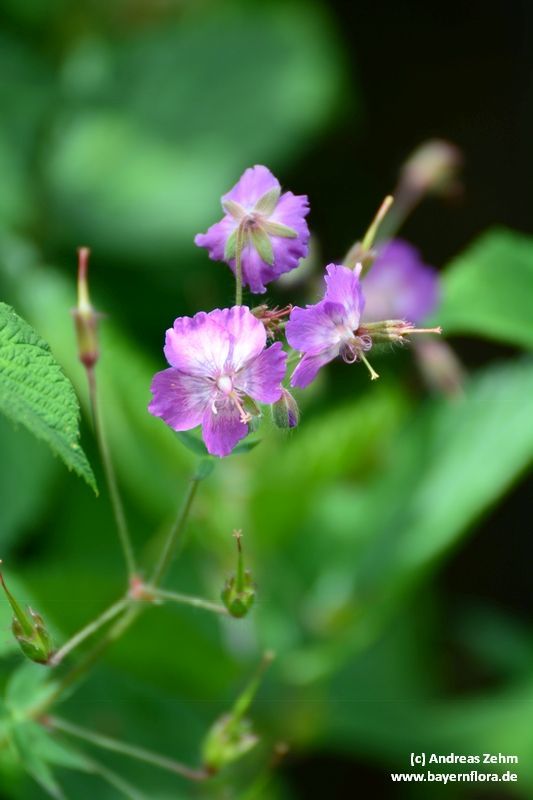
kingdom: Plantae
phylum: Tracheophyta
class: Magnoliopsida
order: Geraniales
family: Geraniaceae
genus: Geranium
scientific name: Geranium phaeum
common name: Dusky crane's-bill
